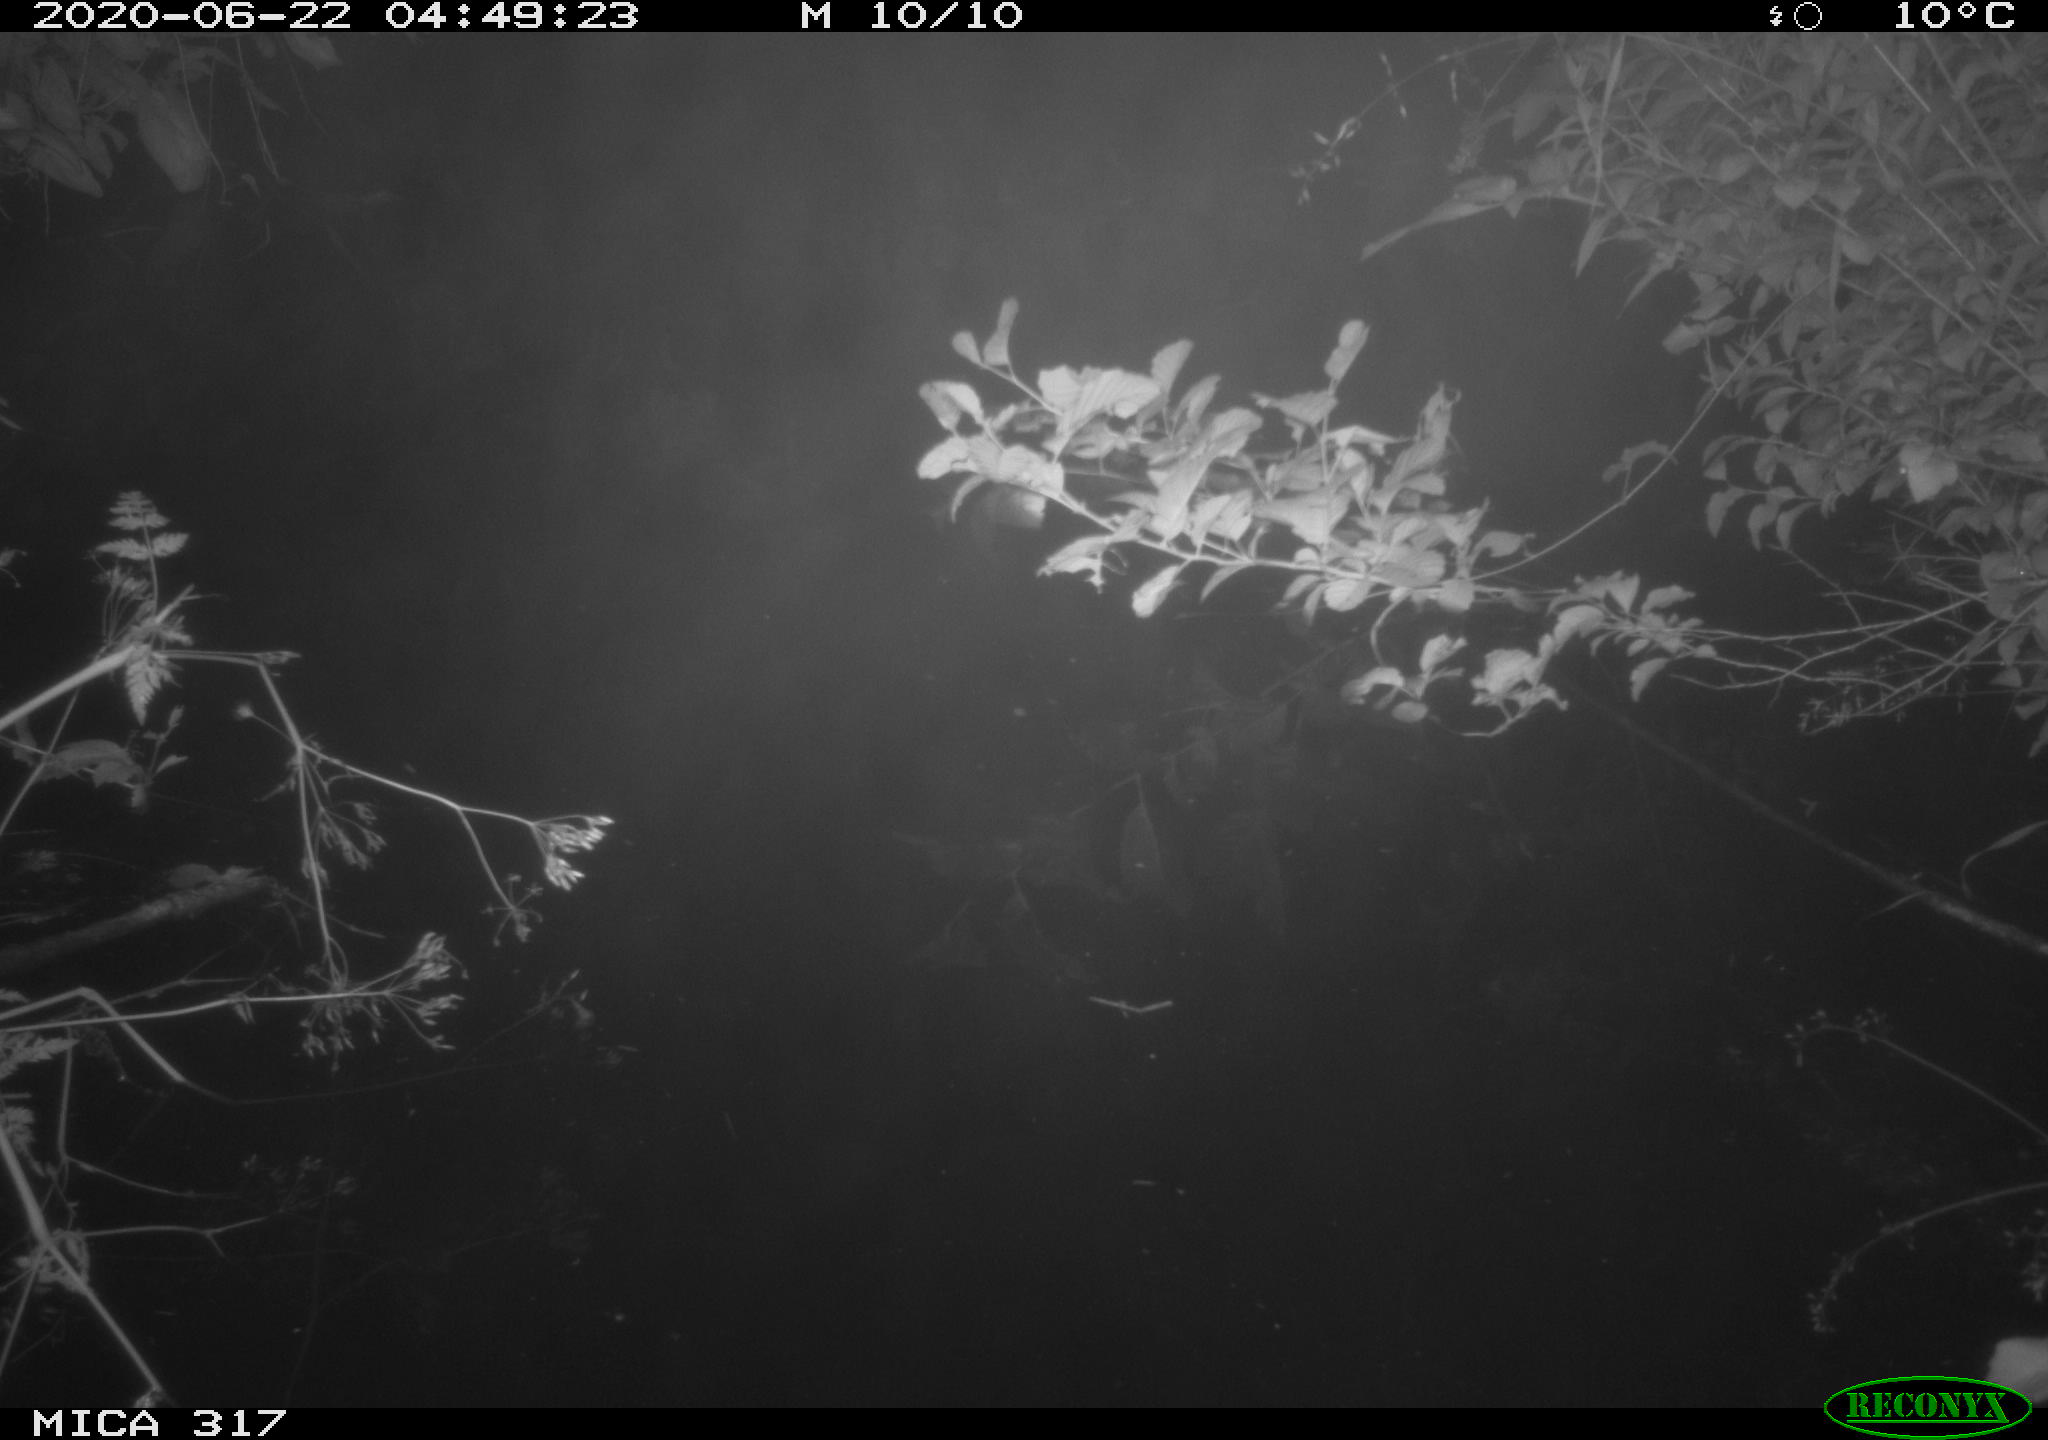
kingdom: Animalia
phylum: Chordata
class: Aves
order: Anseriformes
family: Anatidae
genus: Anas
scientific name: Anas platyrhynchos
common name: Mallard
